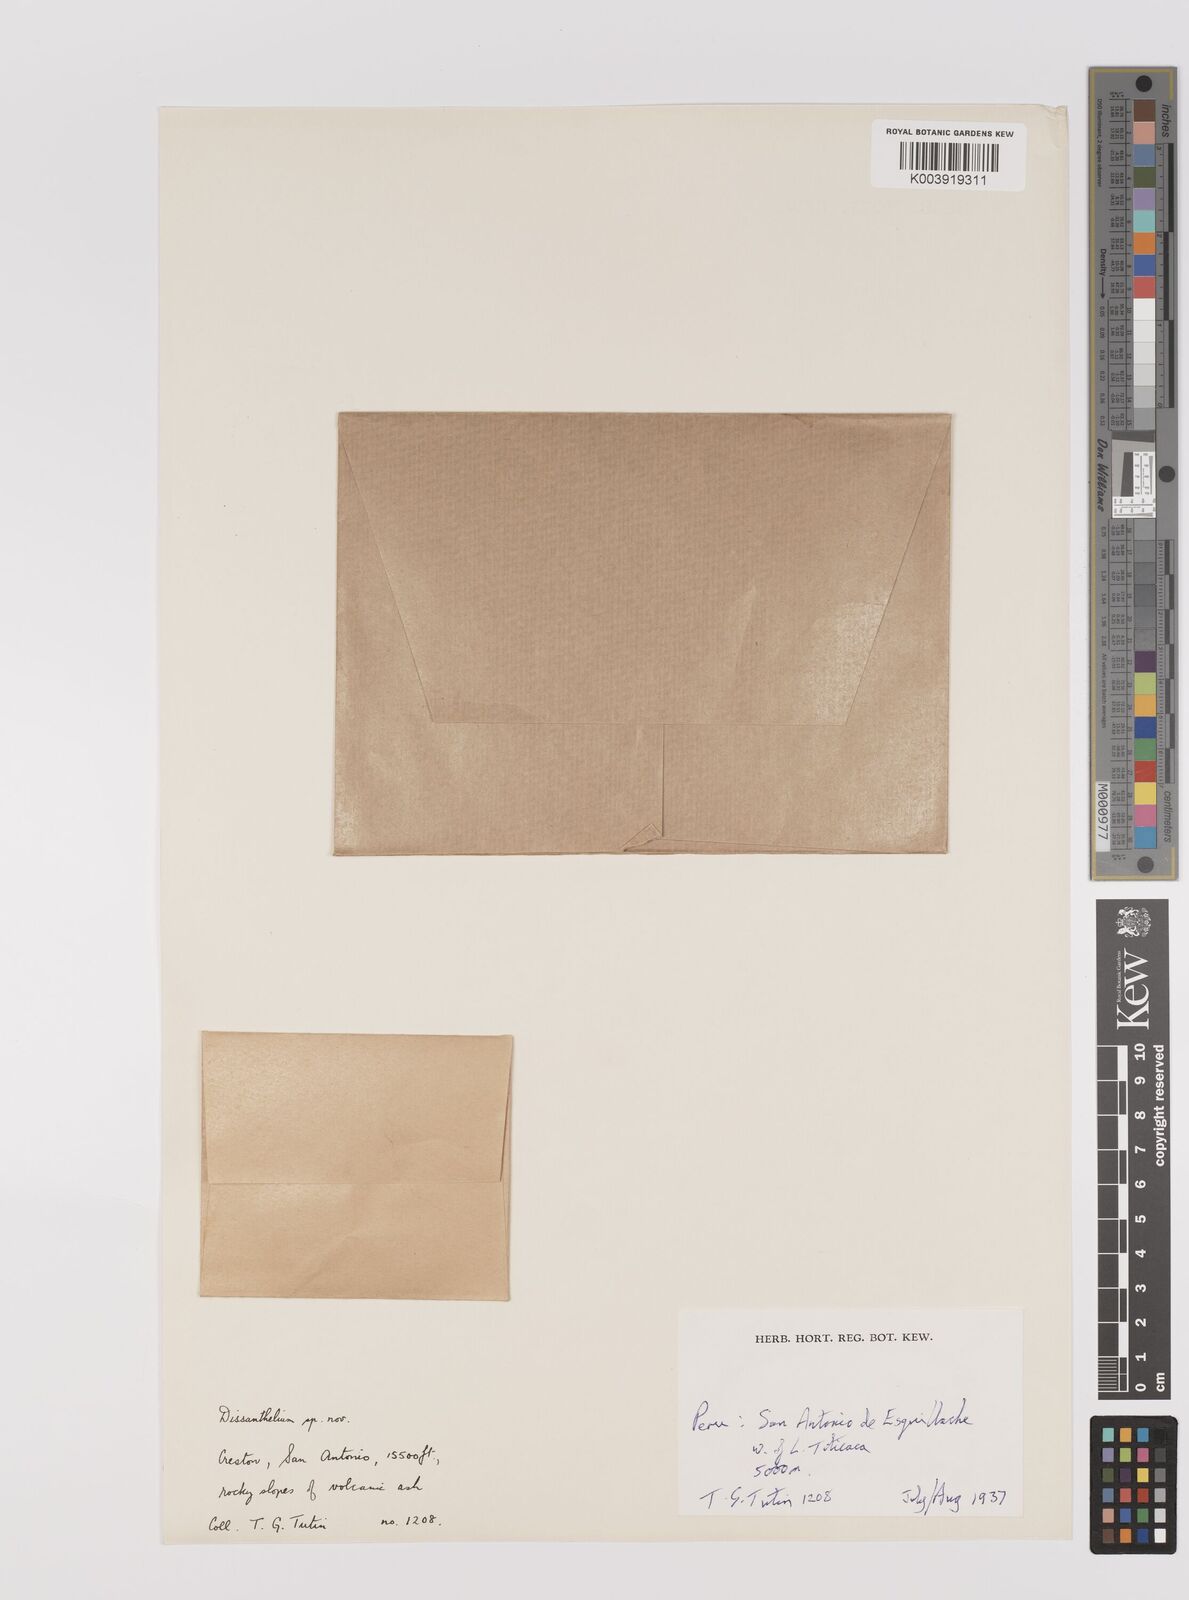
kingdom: Plantae
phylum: Tracheophyta
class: Liliopsida
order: Poales
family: Poaceae
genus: Poa
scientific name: Poa trollii
